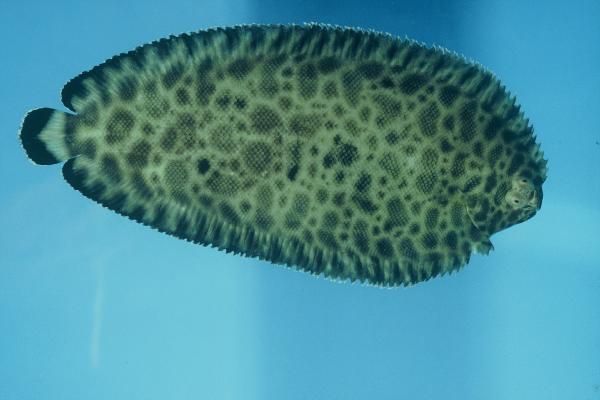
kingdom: Animalia
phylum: Chordata
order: Pleuronectiformes
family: Soleidae
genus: Soleichthys
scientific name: Soleichthys tubiferus
